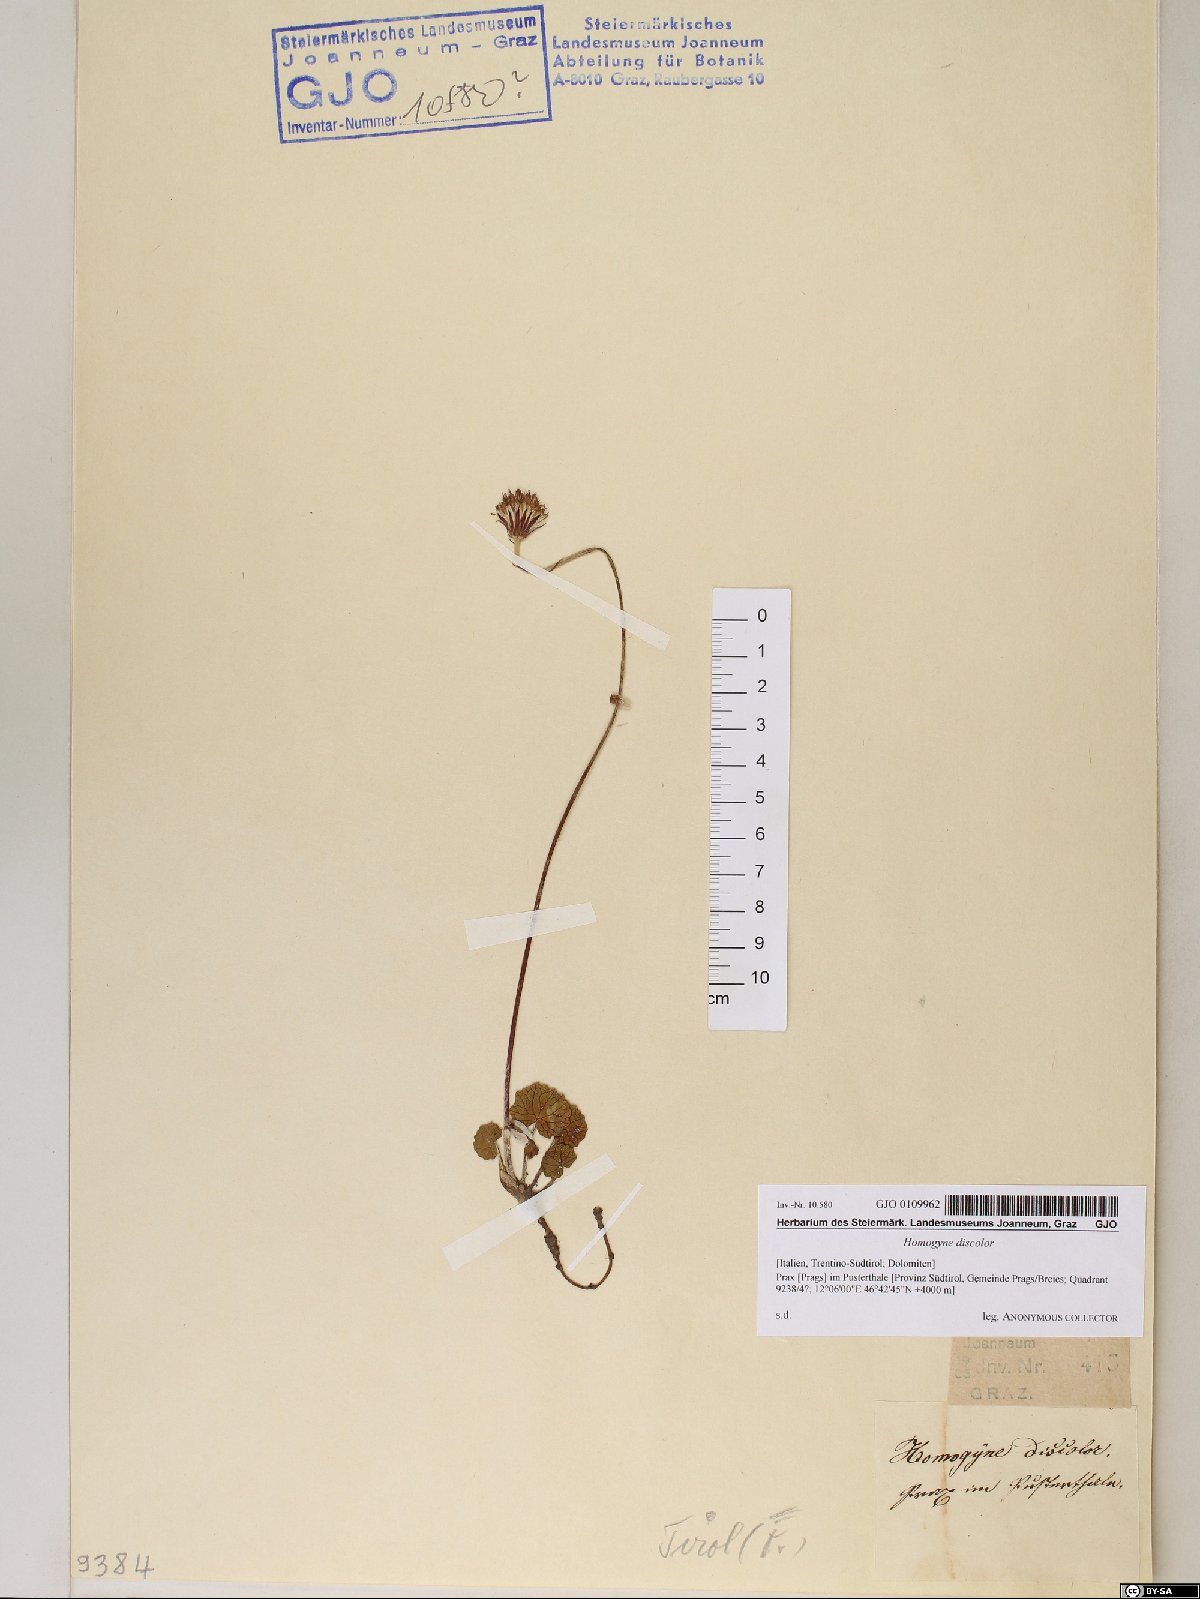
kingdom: Plantae
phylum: Tracheophyta
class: Magnoliopsida
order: Asterales
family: Asteraceae
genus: Homogyne
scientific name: Homogyne discolor
